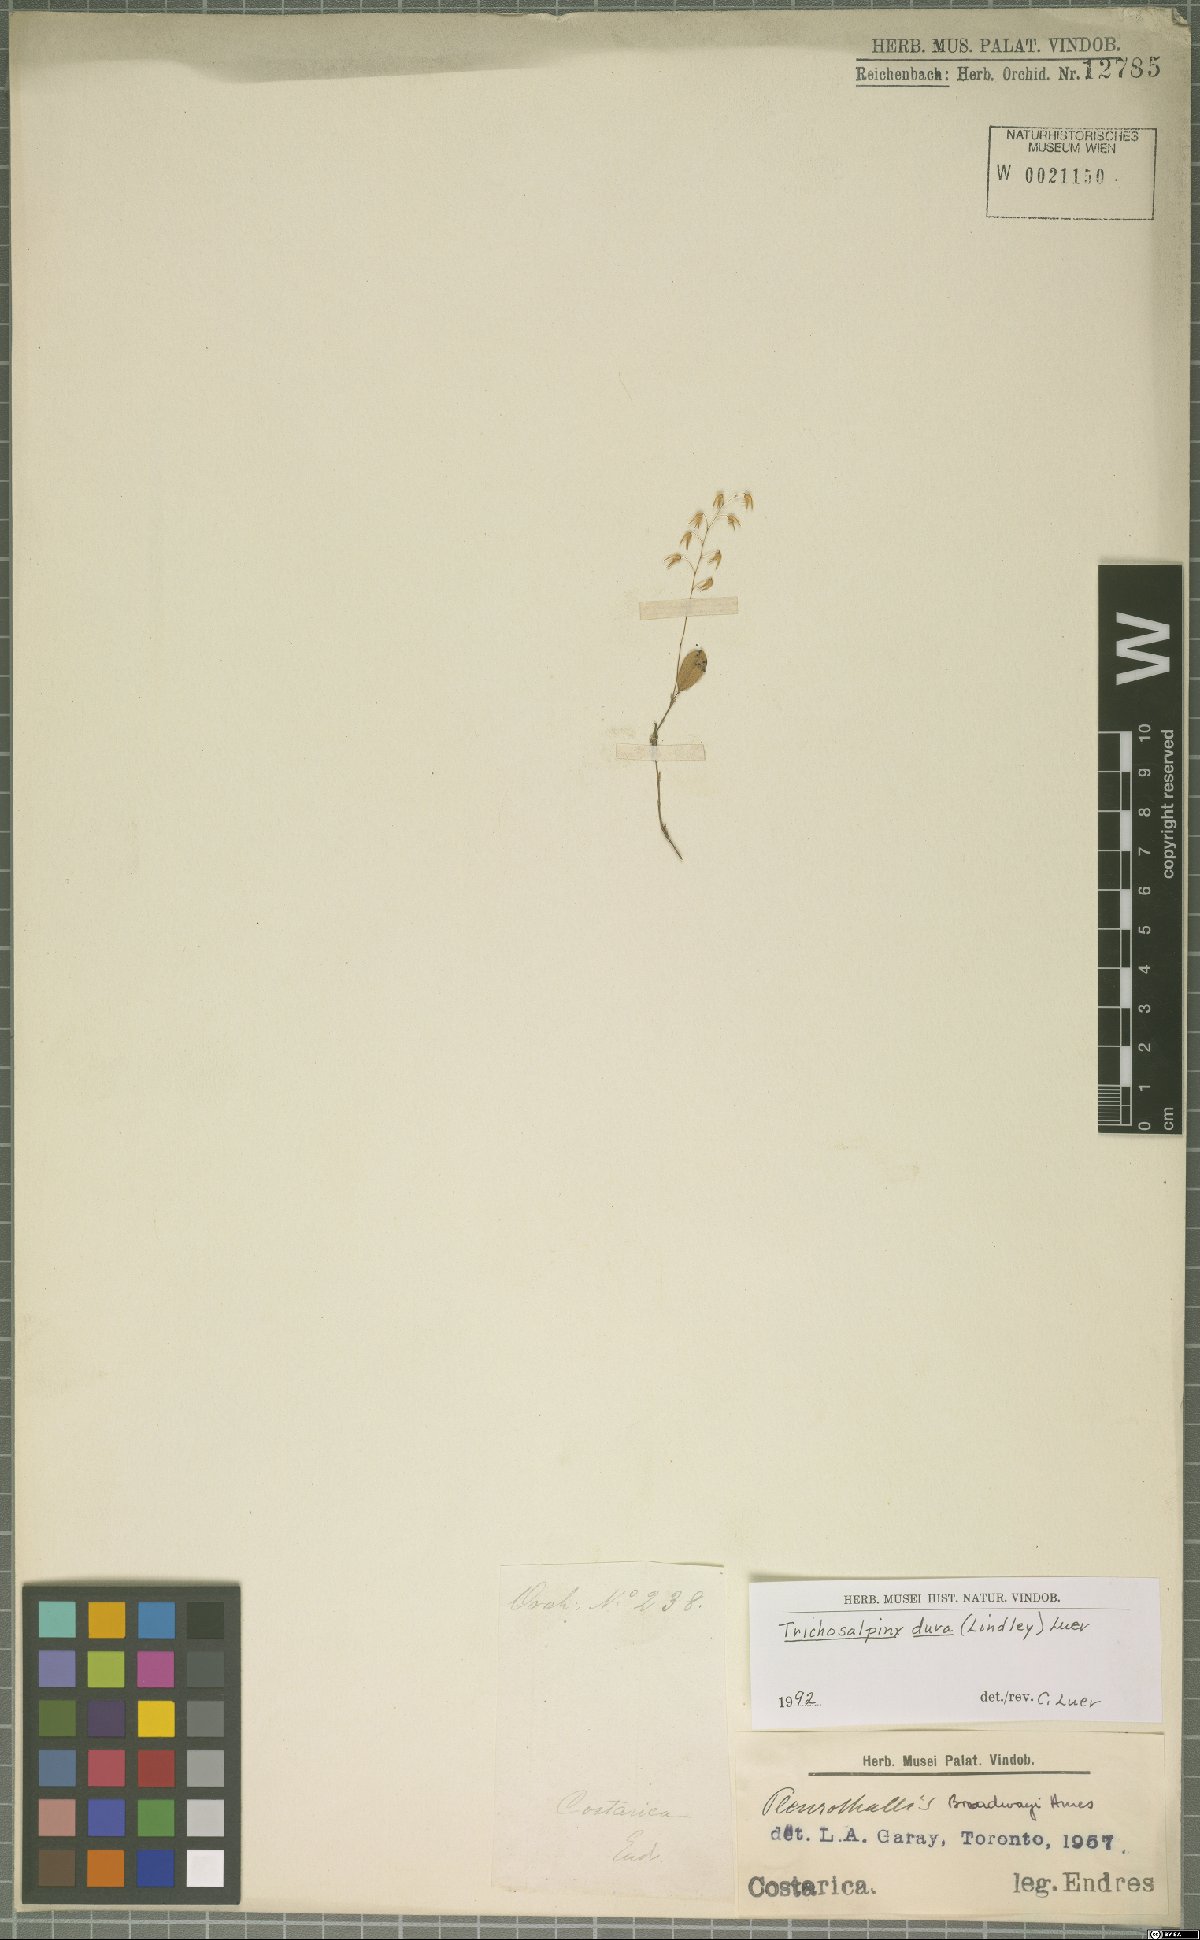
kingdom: Plantae
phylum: Tracheophyta
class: Liliopsida
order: Asparagales
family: Orchidaceae
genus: Trichosalpinx
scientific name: Trichosalpinx dura
